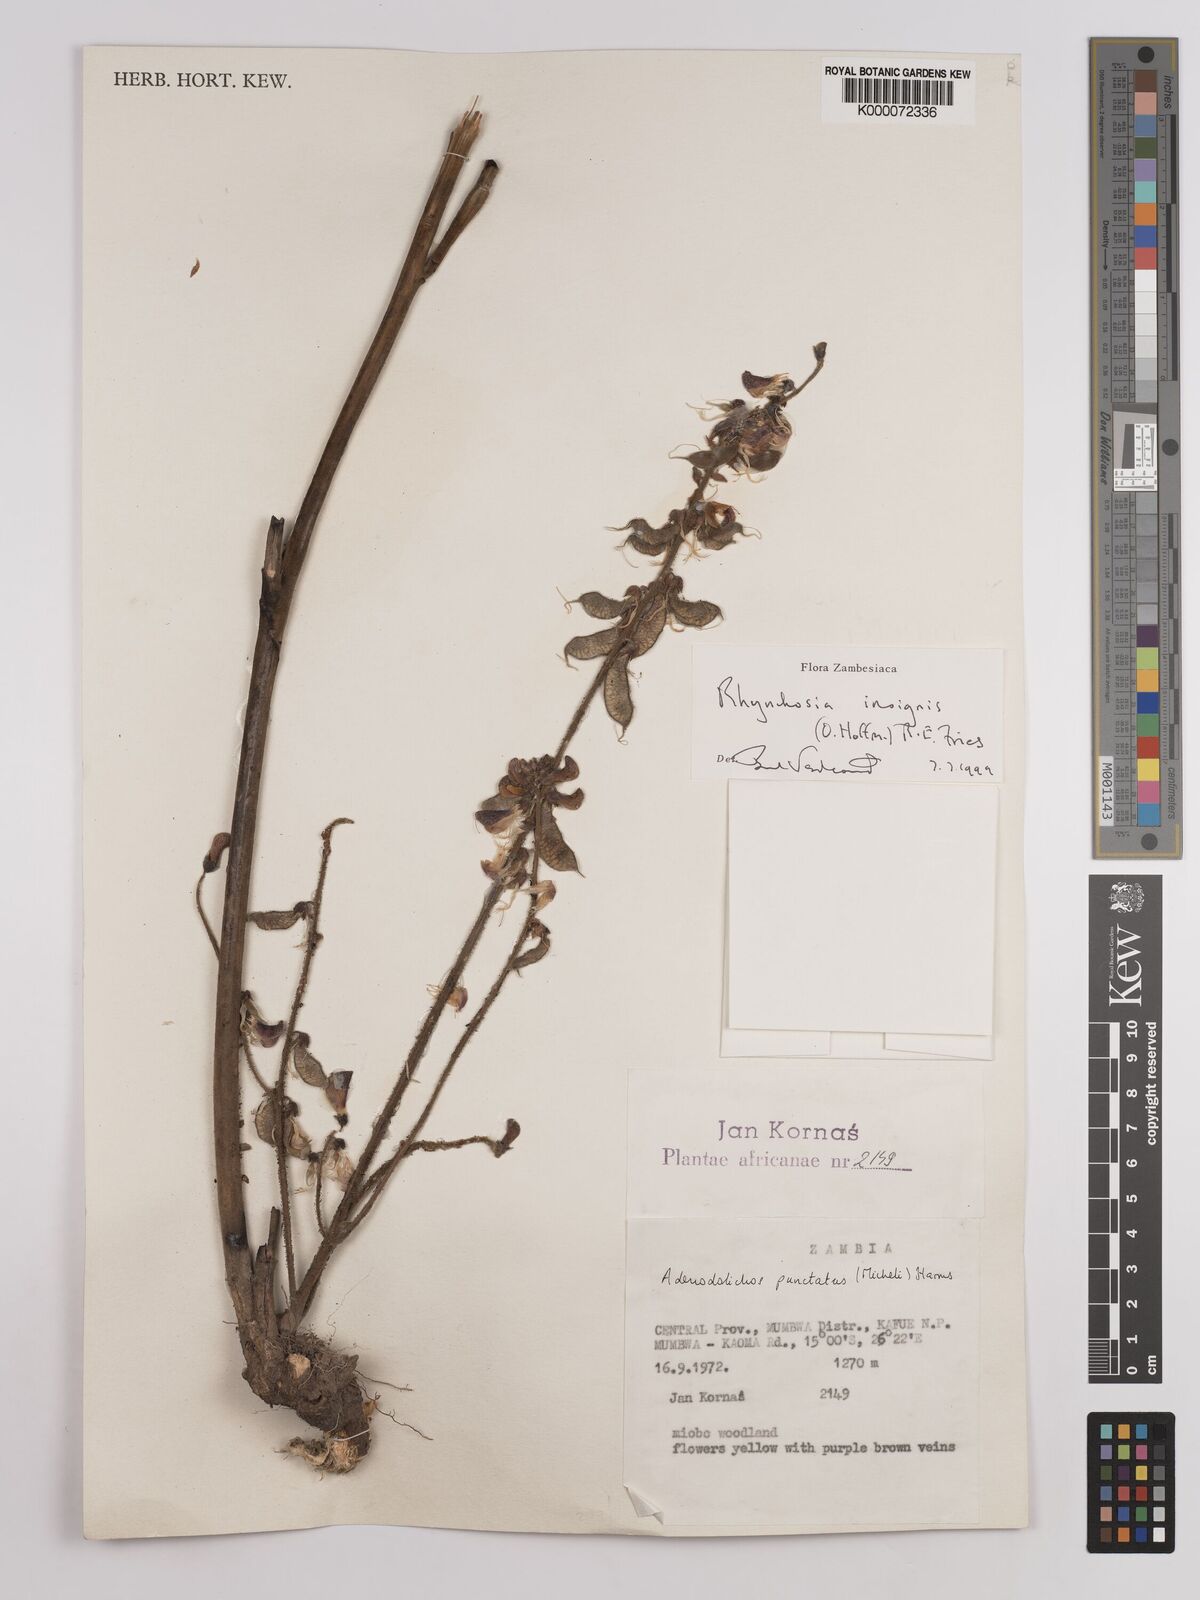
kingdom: Plantae
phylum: Tracheophyta
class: Magnoliopsida
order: Fabales
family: Fabaceae
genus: Rhynchosia
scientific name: Rhynchosia insignis
